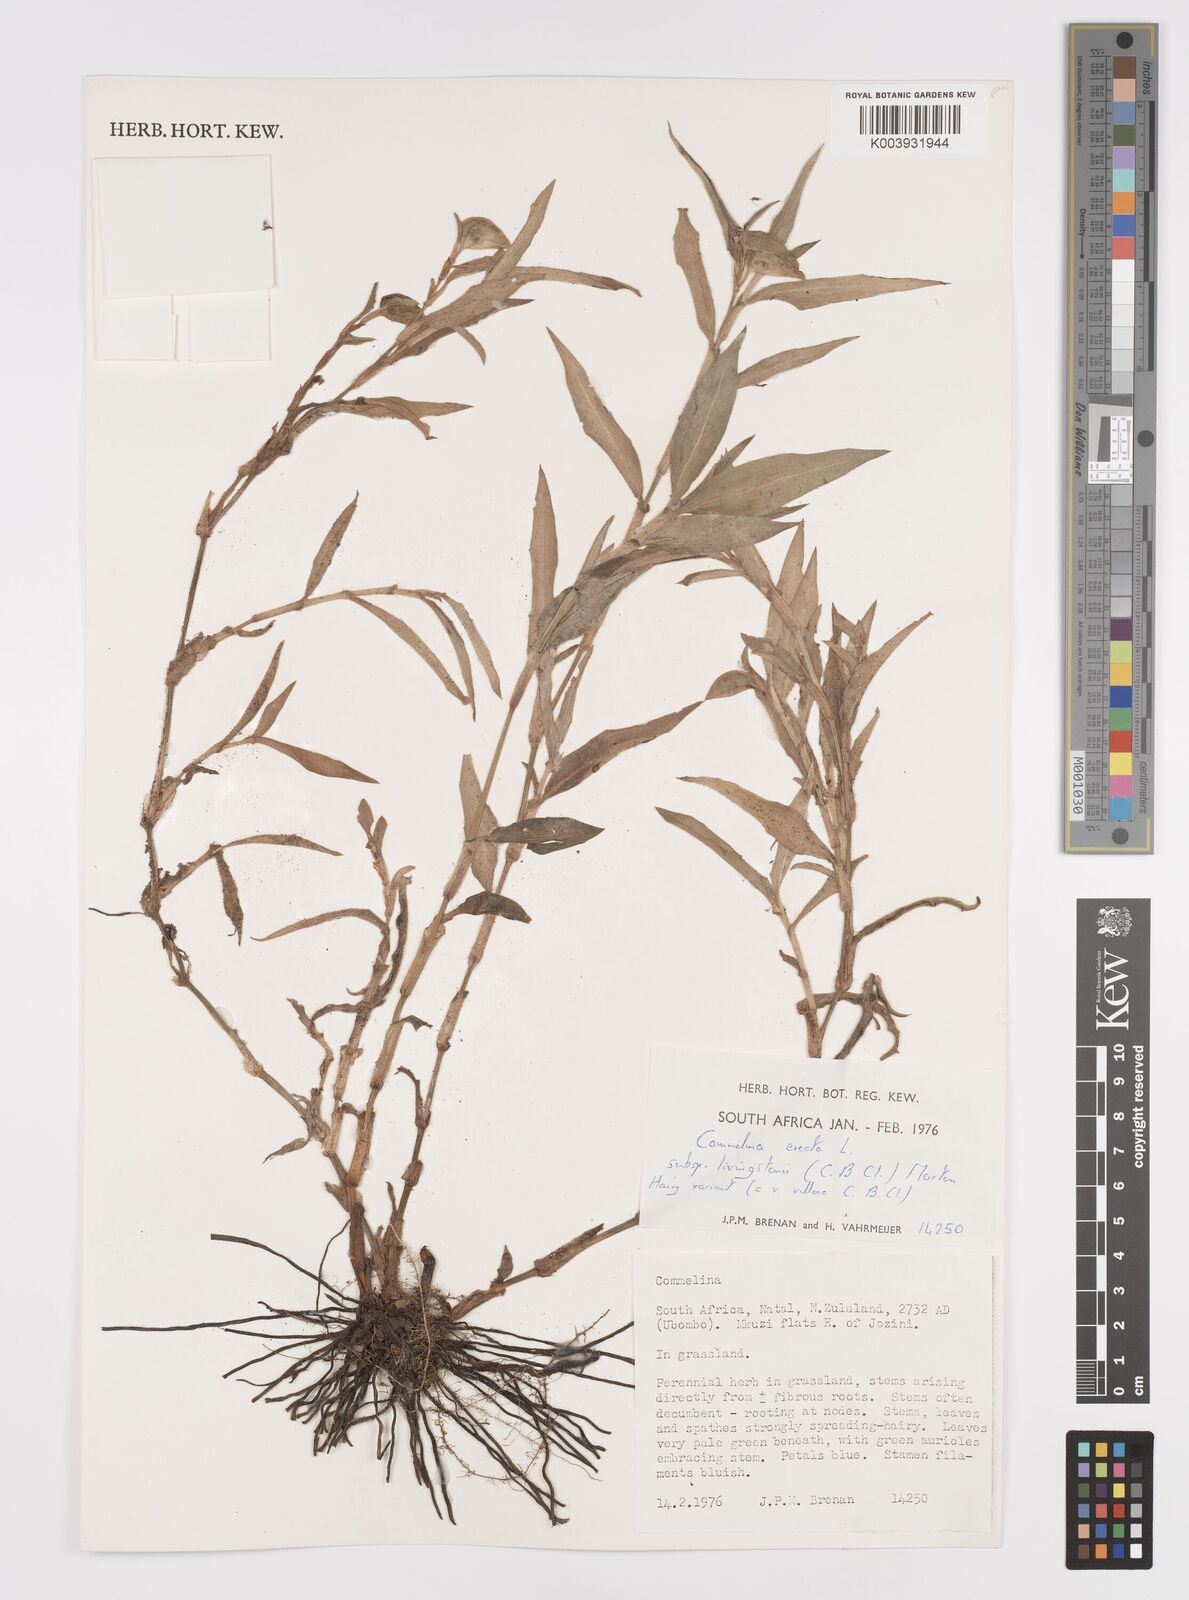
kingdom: Plantae
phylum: Tracheophyta
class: Liliopsida
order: Commelinales
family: Commelinaceae
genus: Commelina
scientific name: Commelina erecta
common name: Blousel blommetjie
